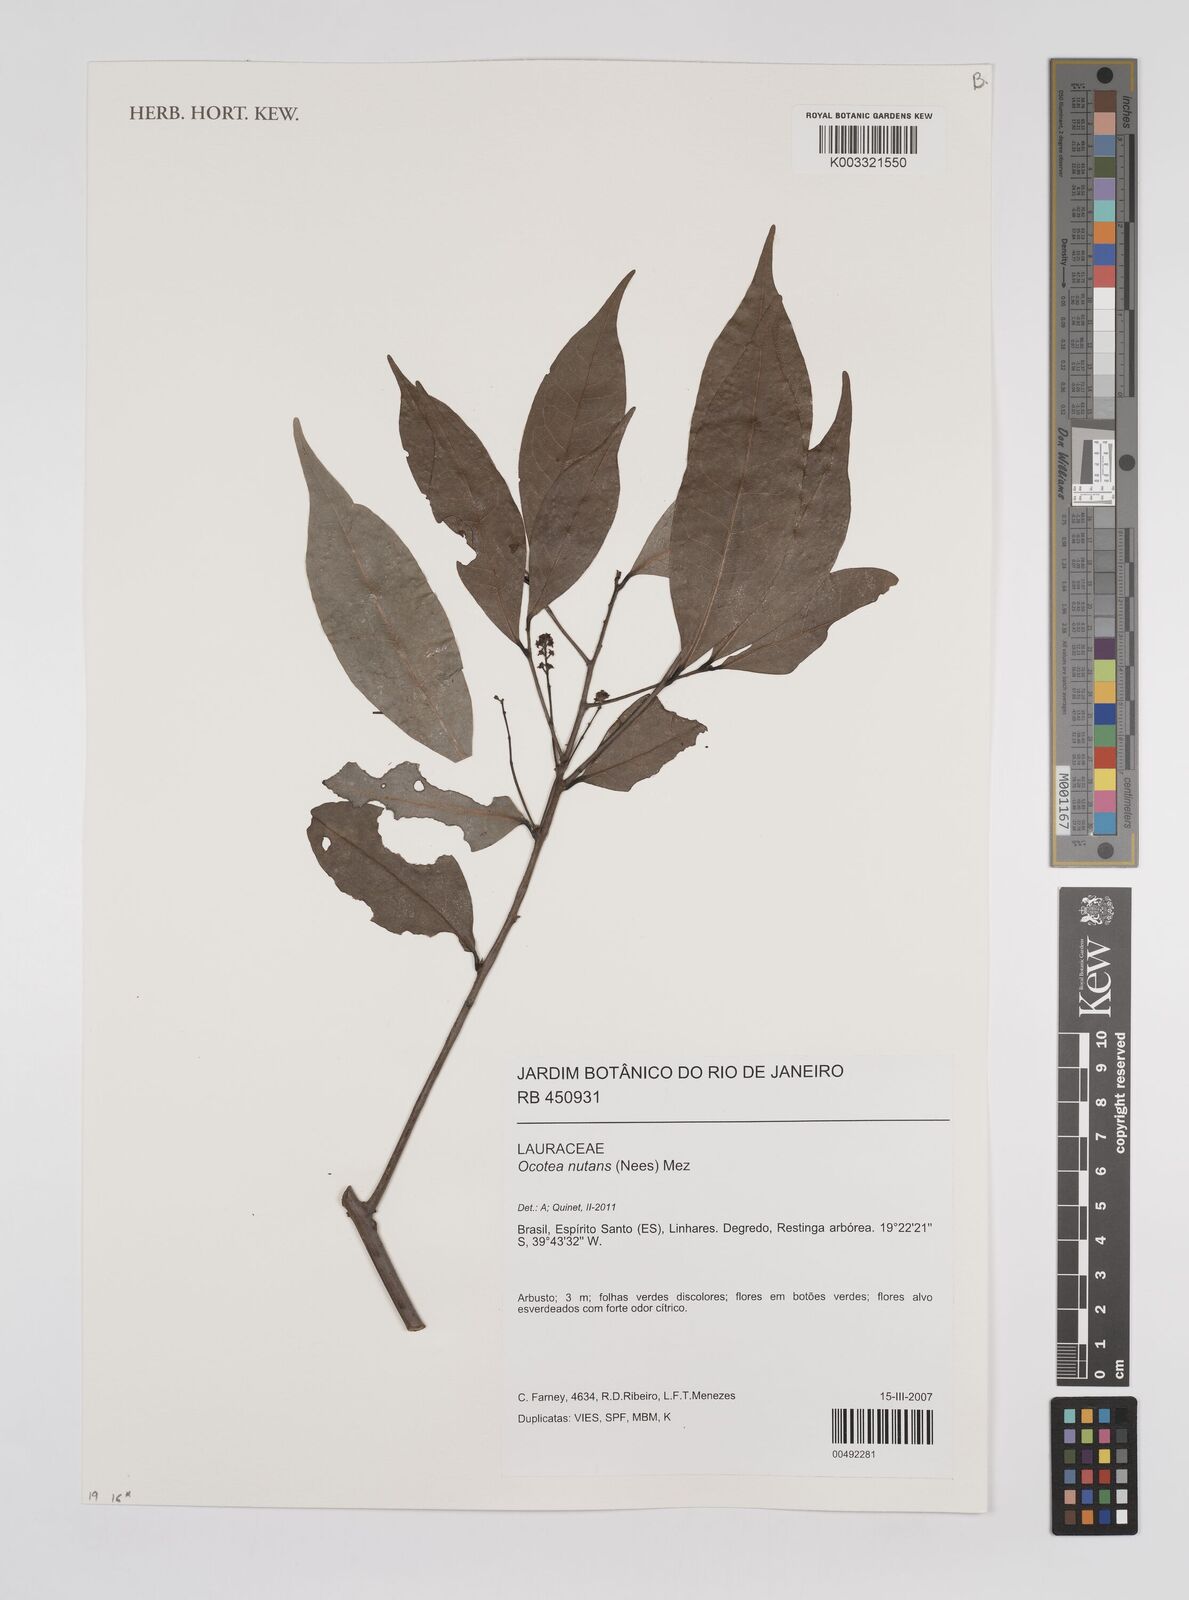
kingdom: Plantae
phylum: Tracheophyta
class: Magnoliopsida
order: Laurales
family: Lauraceae
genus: Mespilodaphne
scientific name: Mespilodaphne nutans
